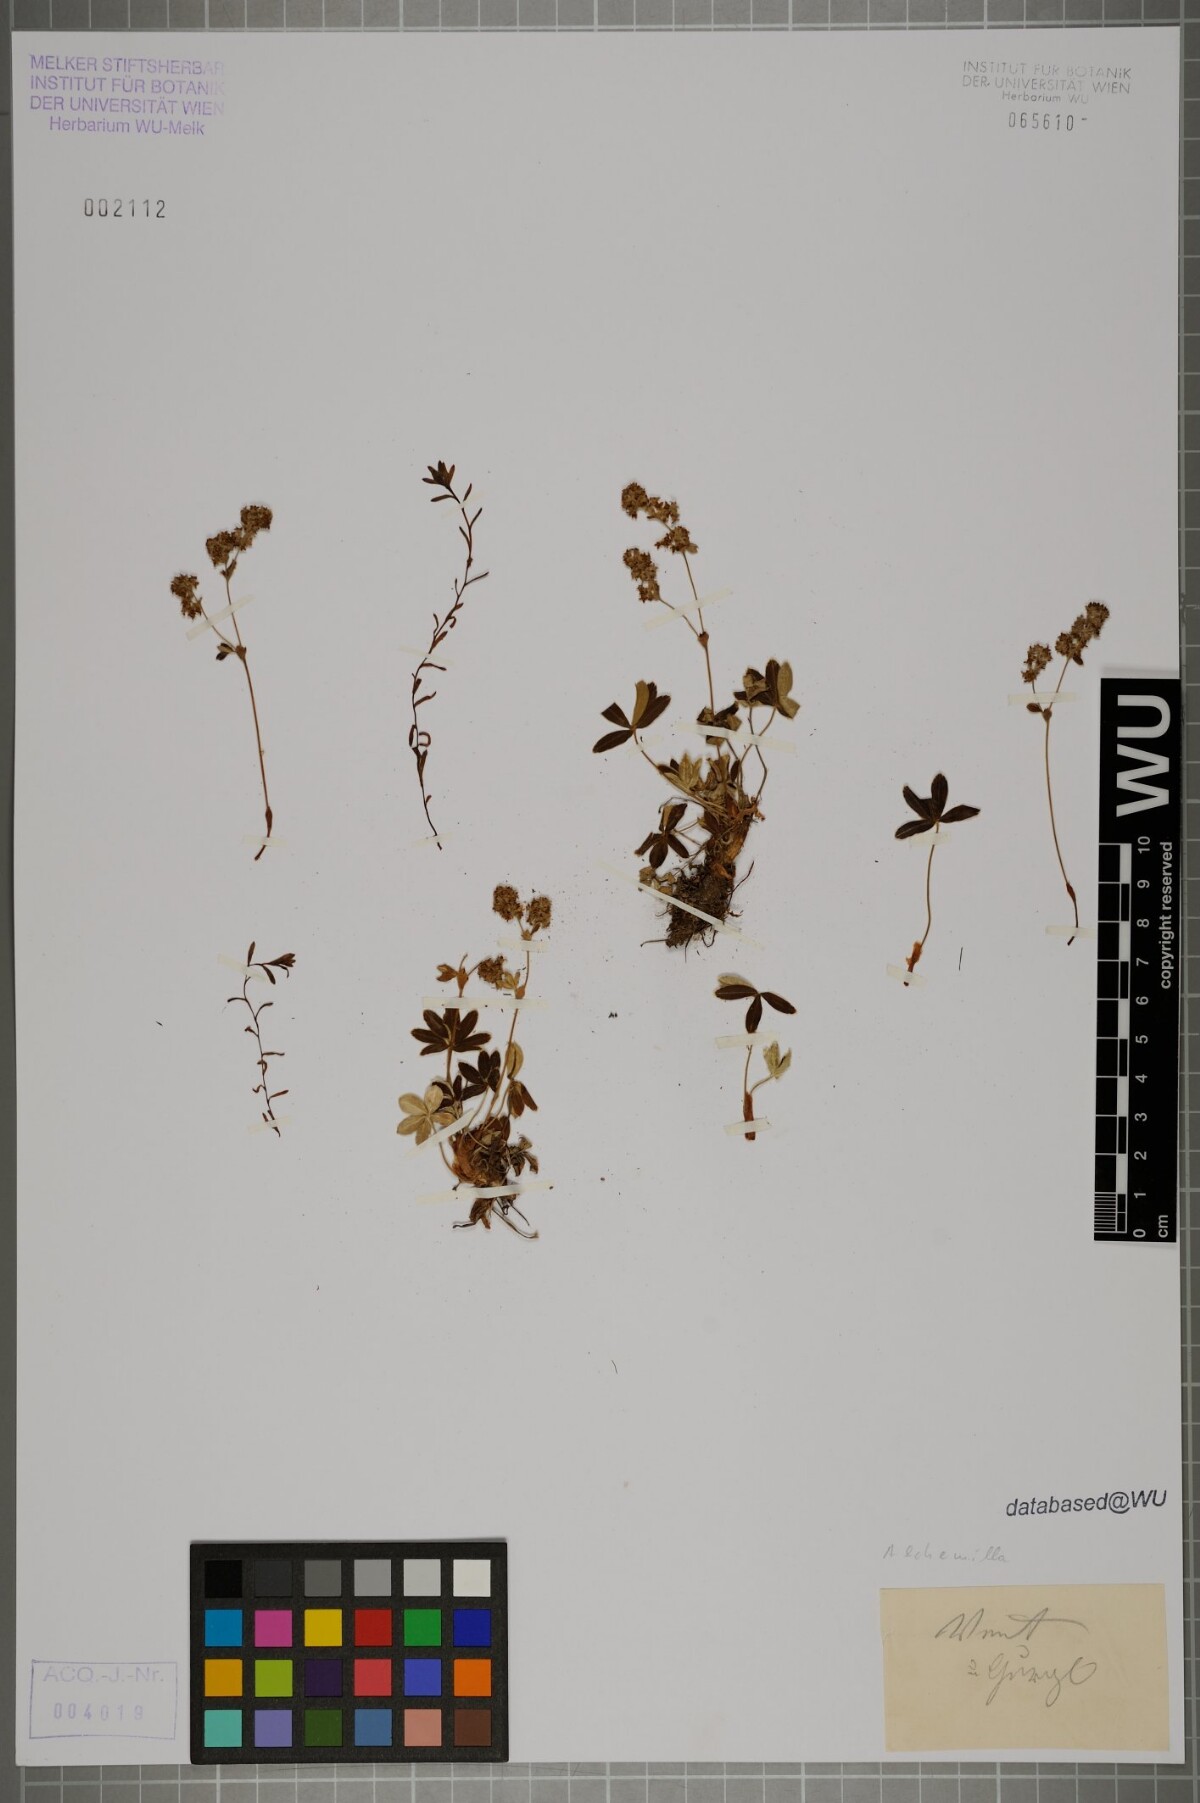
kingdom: Plantae
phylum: Tracheophyta
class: Magnoliopsida
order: Rosales
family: Rosaceae
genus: Alchemilla
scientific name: Alchemilla
